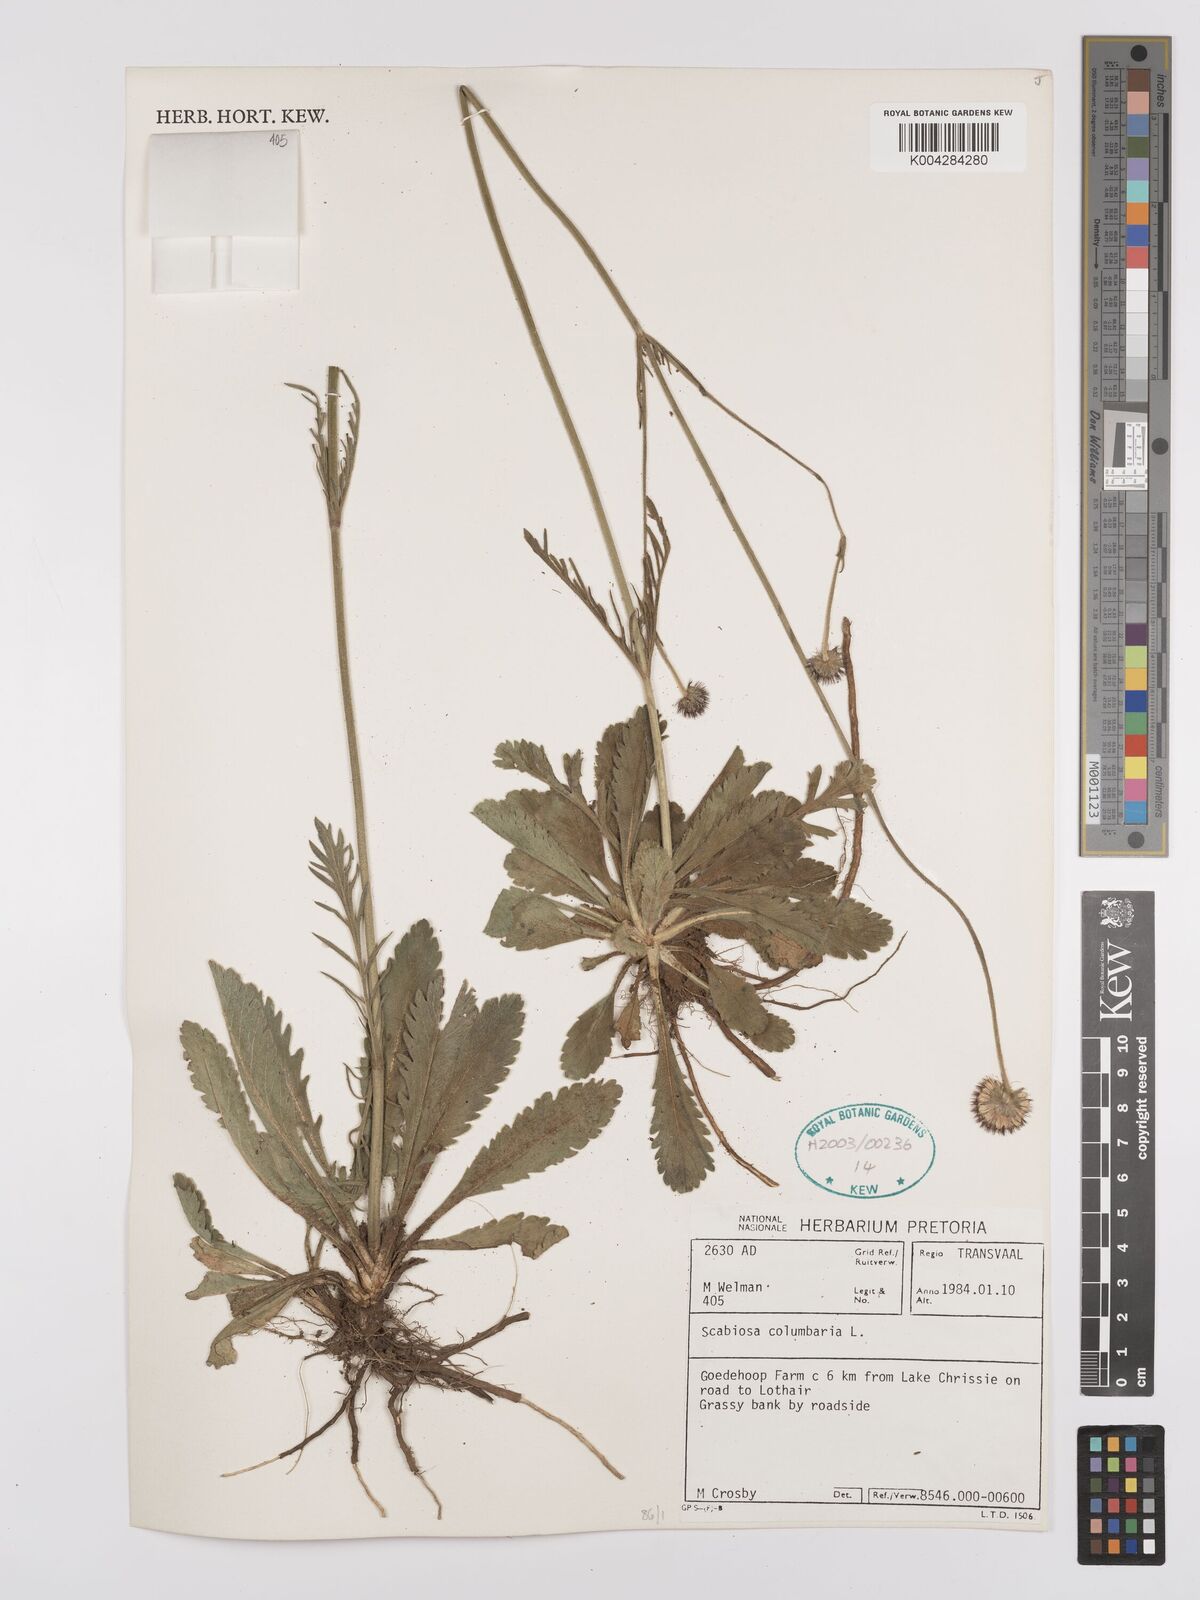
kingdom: Plantae
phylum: Tracheophyta
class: Magnoliopsida
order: Dipsacales
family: Caprifoliaceae
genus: Scabiosa
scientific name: Scabiosa columbaria
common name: Small scabious
